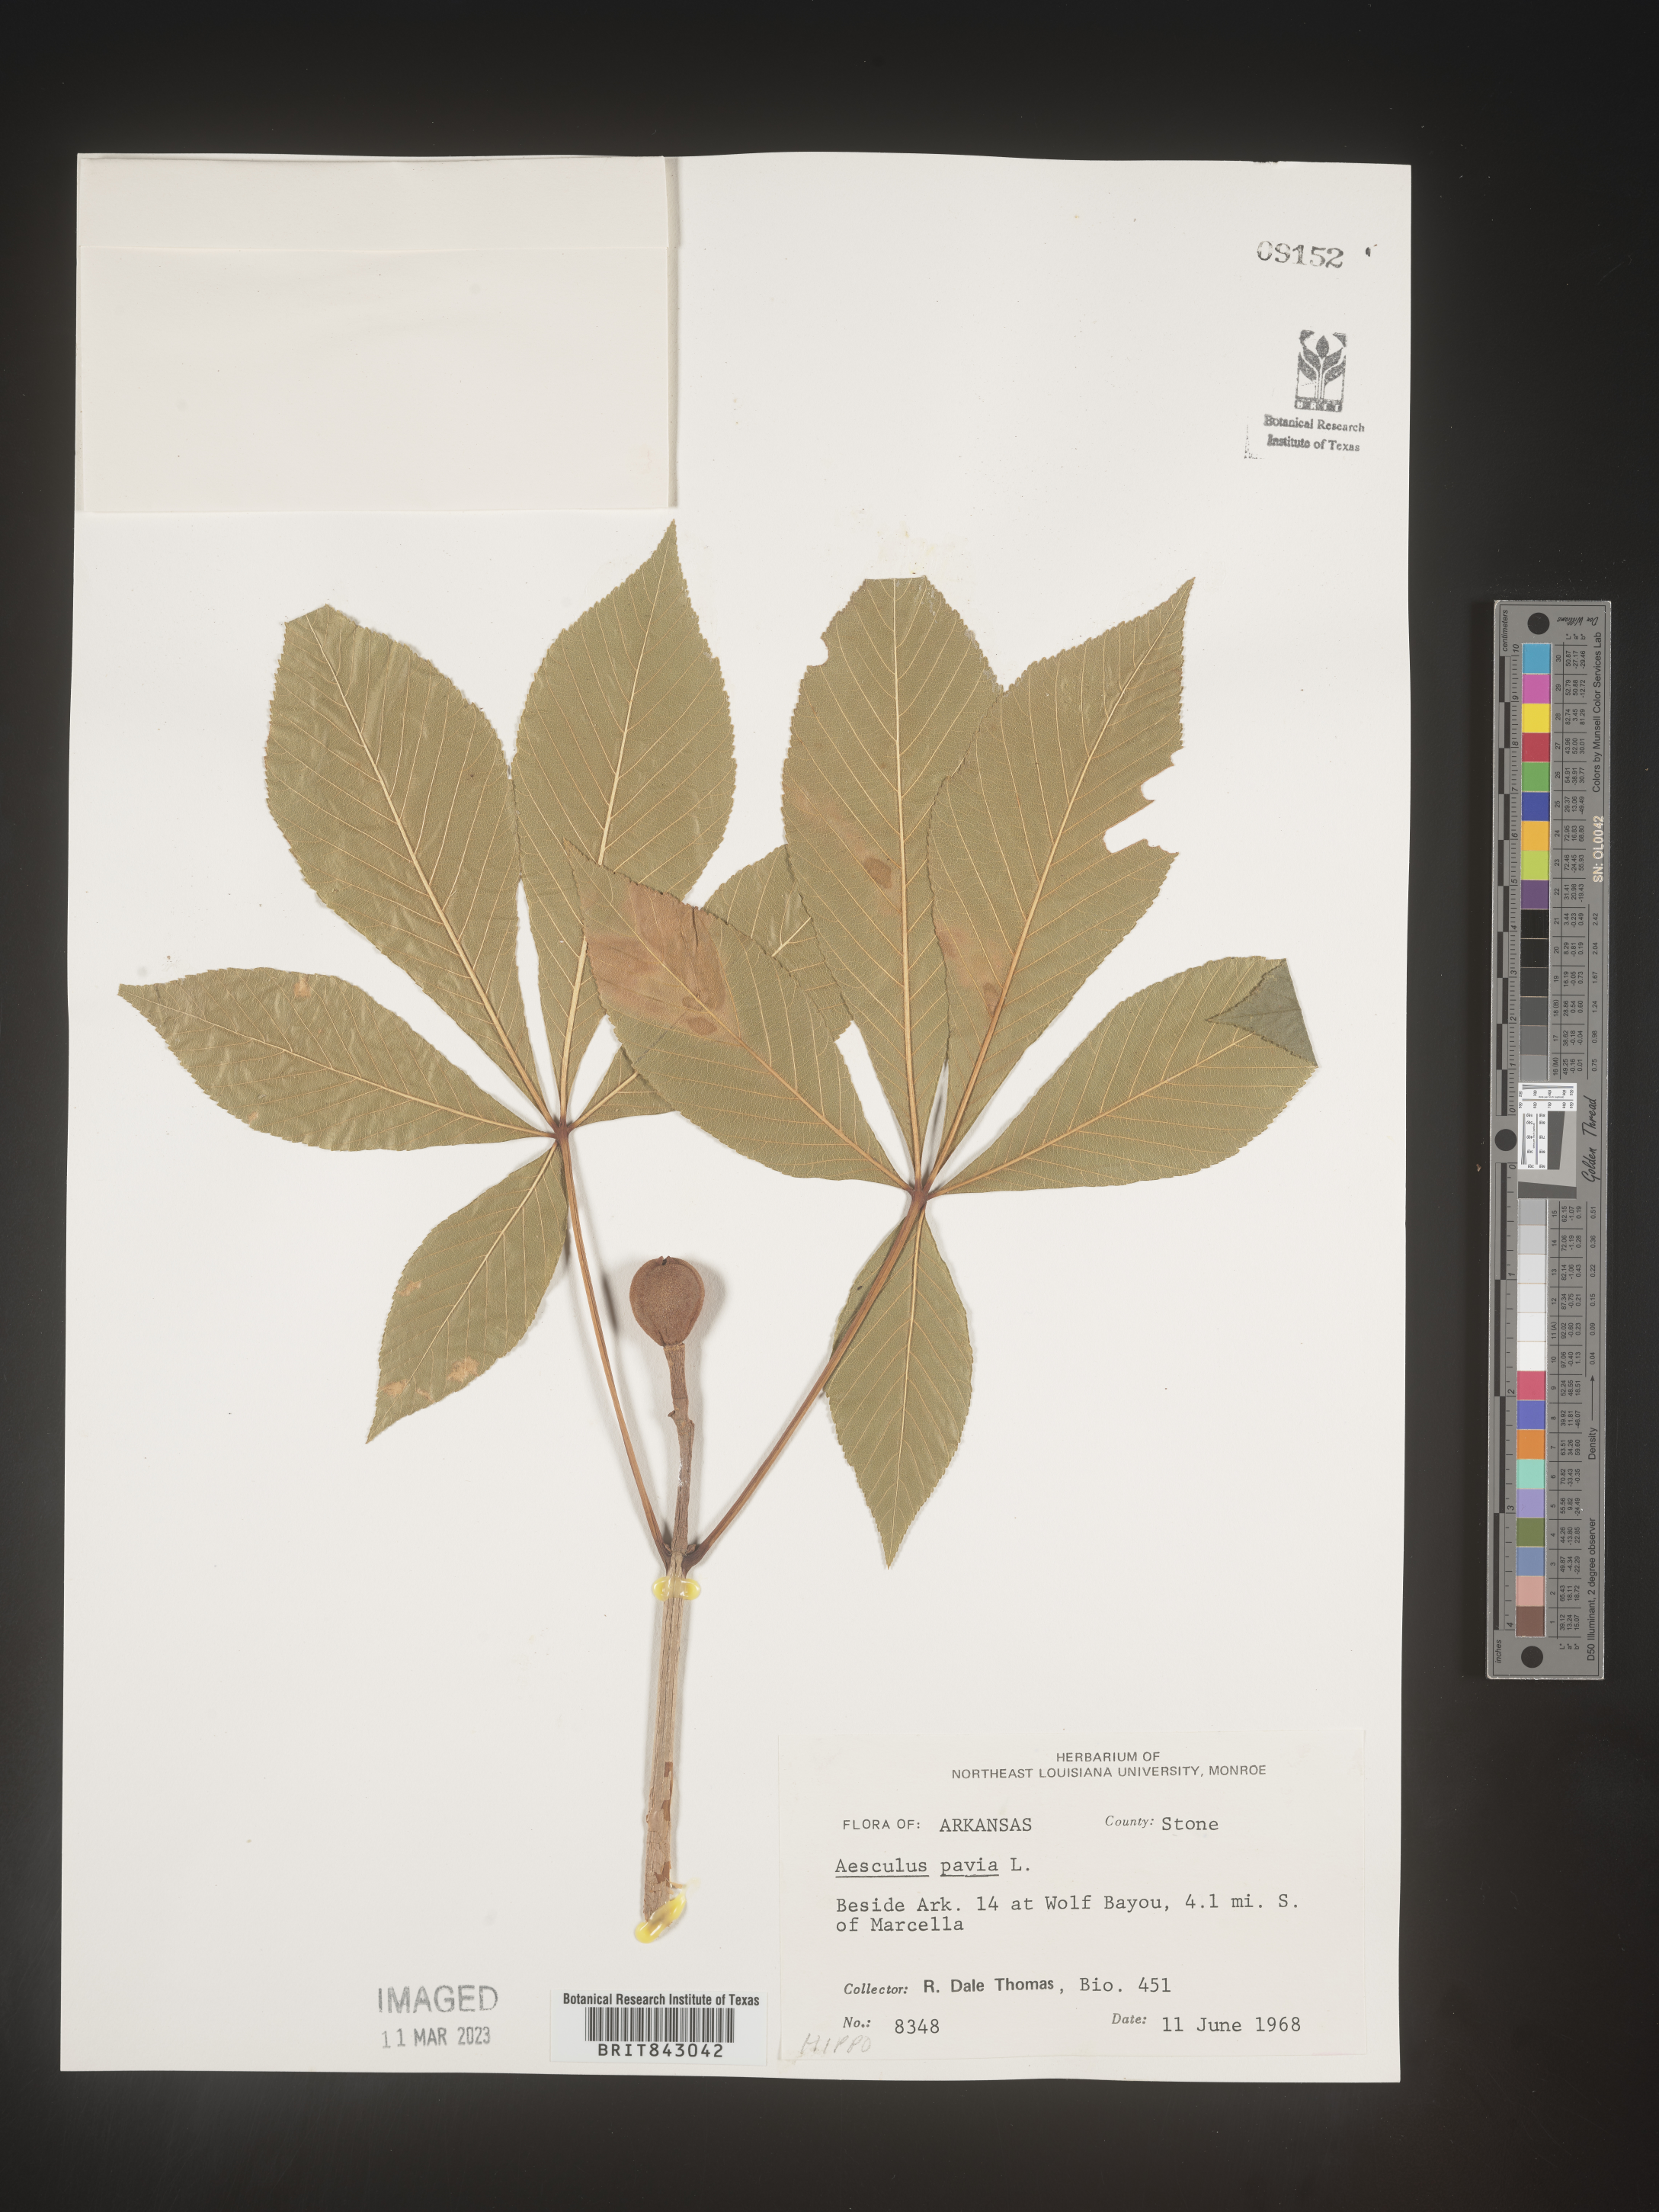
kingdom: Plantae
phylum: Tracheophyta
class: Magnoliopsida
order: Sapindales
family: Sapindaceae
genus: Aesculus
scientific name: Aesculus pavia
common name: Red buckeye
